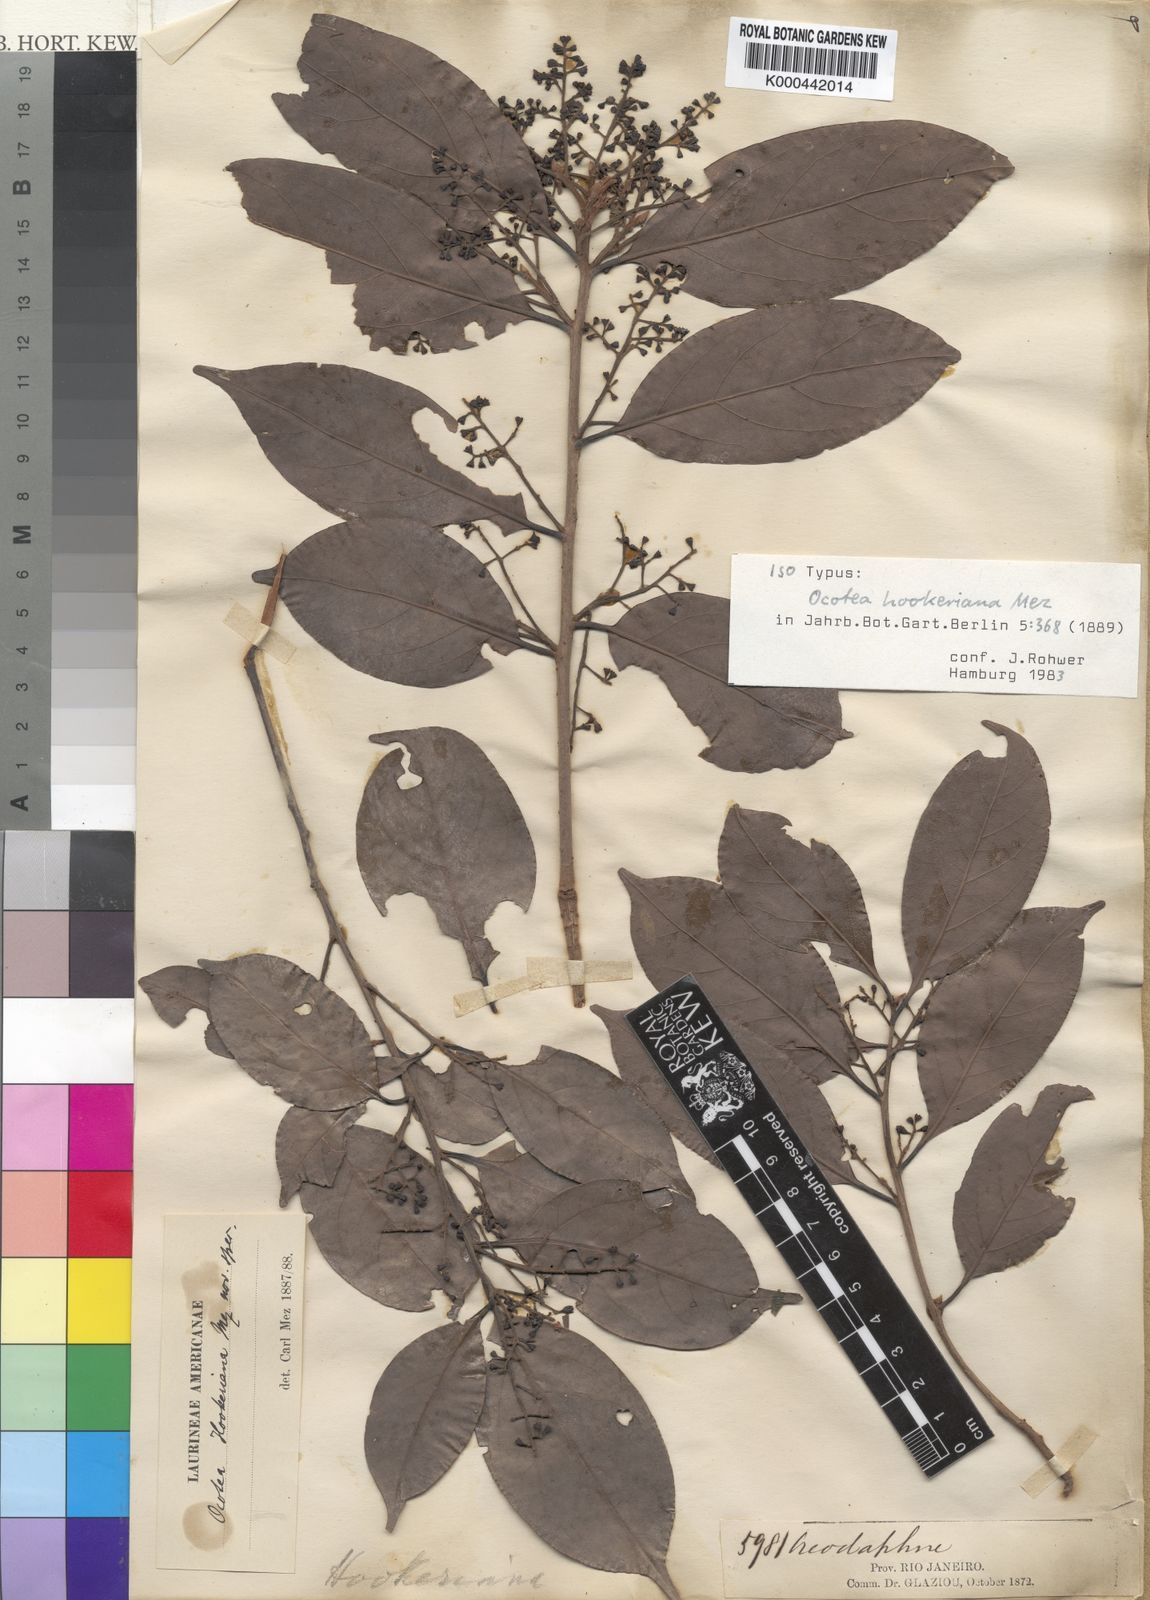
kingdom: Plantae
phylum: Tracheophyta
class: Magnoliopsida
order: Laurales
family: Lauraceae
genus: Mezilaurus
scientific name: Mezilaurus ita-uba
